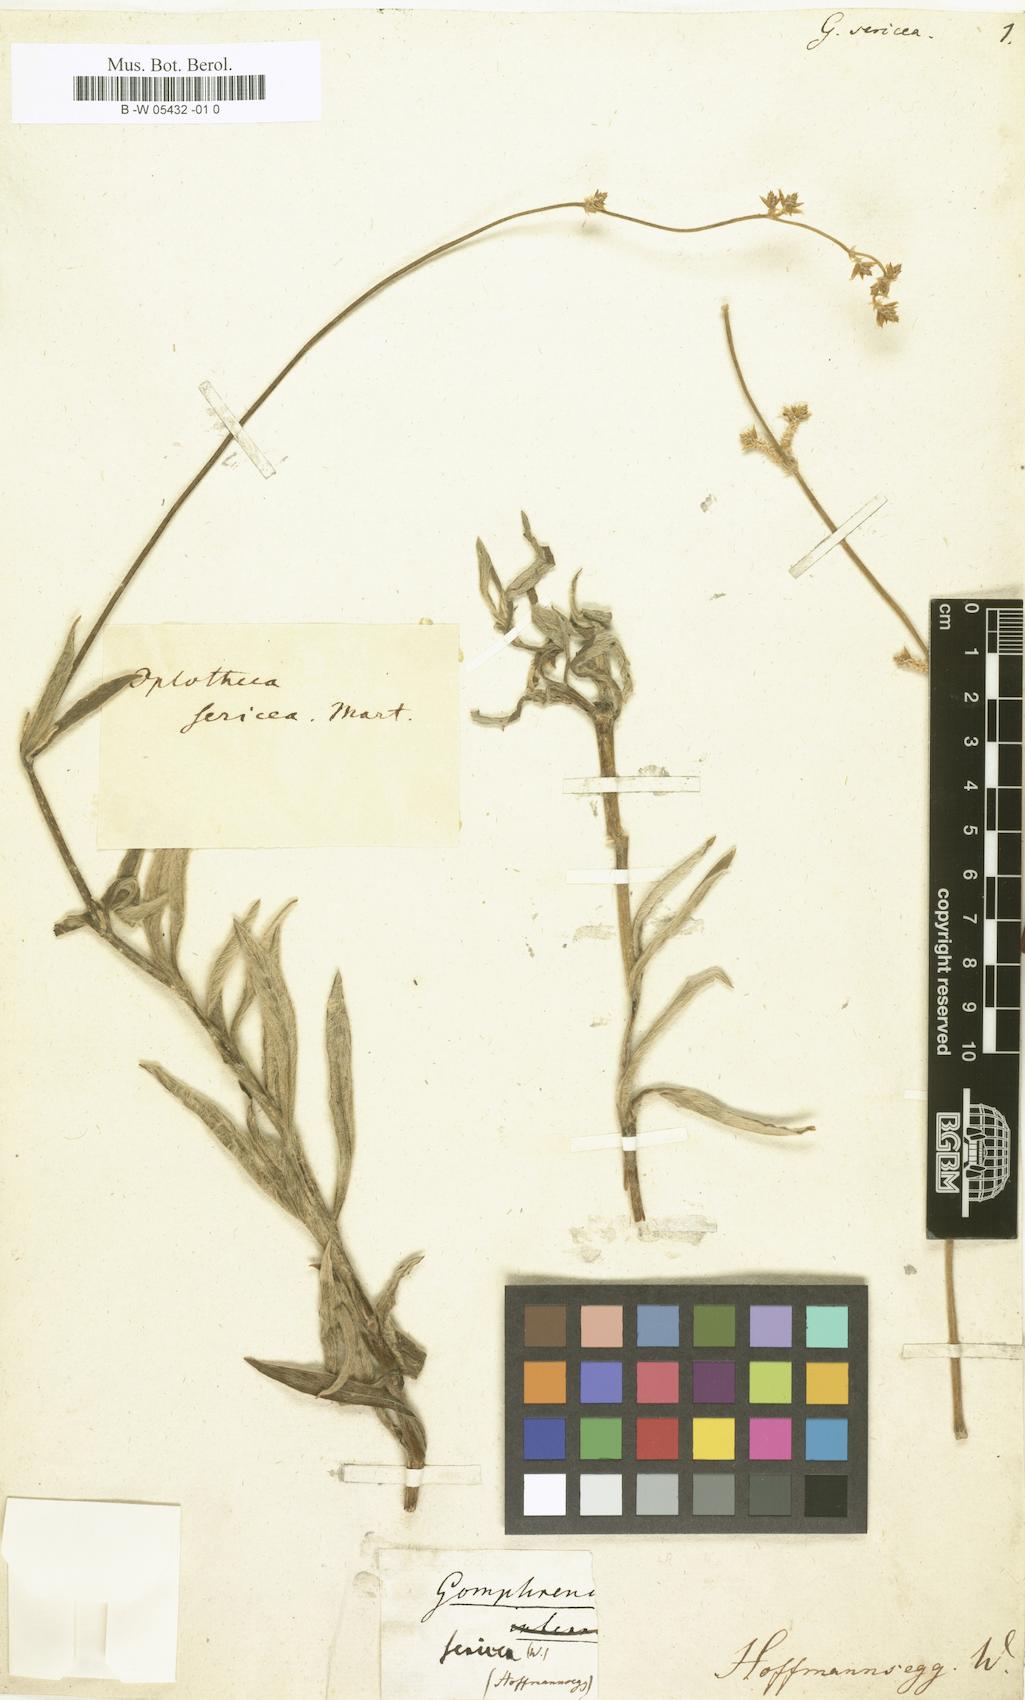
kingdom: Plantae
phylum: Tracheophyta
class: Magnoliopsida
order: Caryophyllales
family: Amaranthaceae
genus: Froelichia
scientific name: Froelichia sericea
